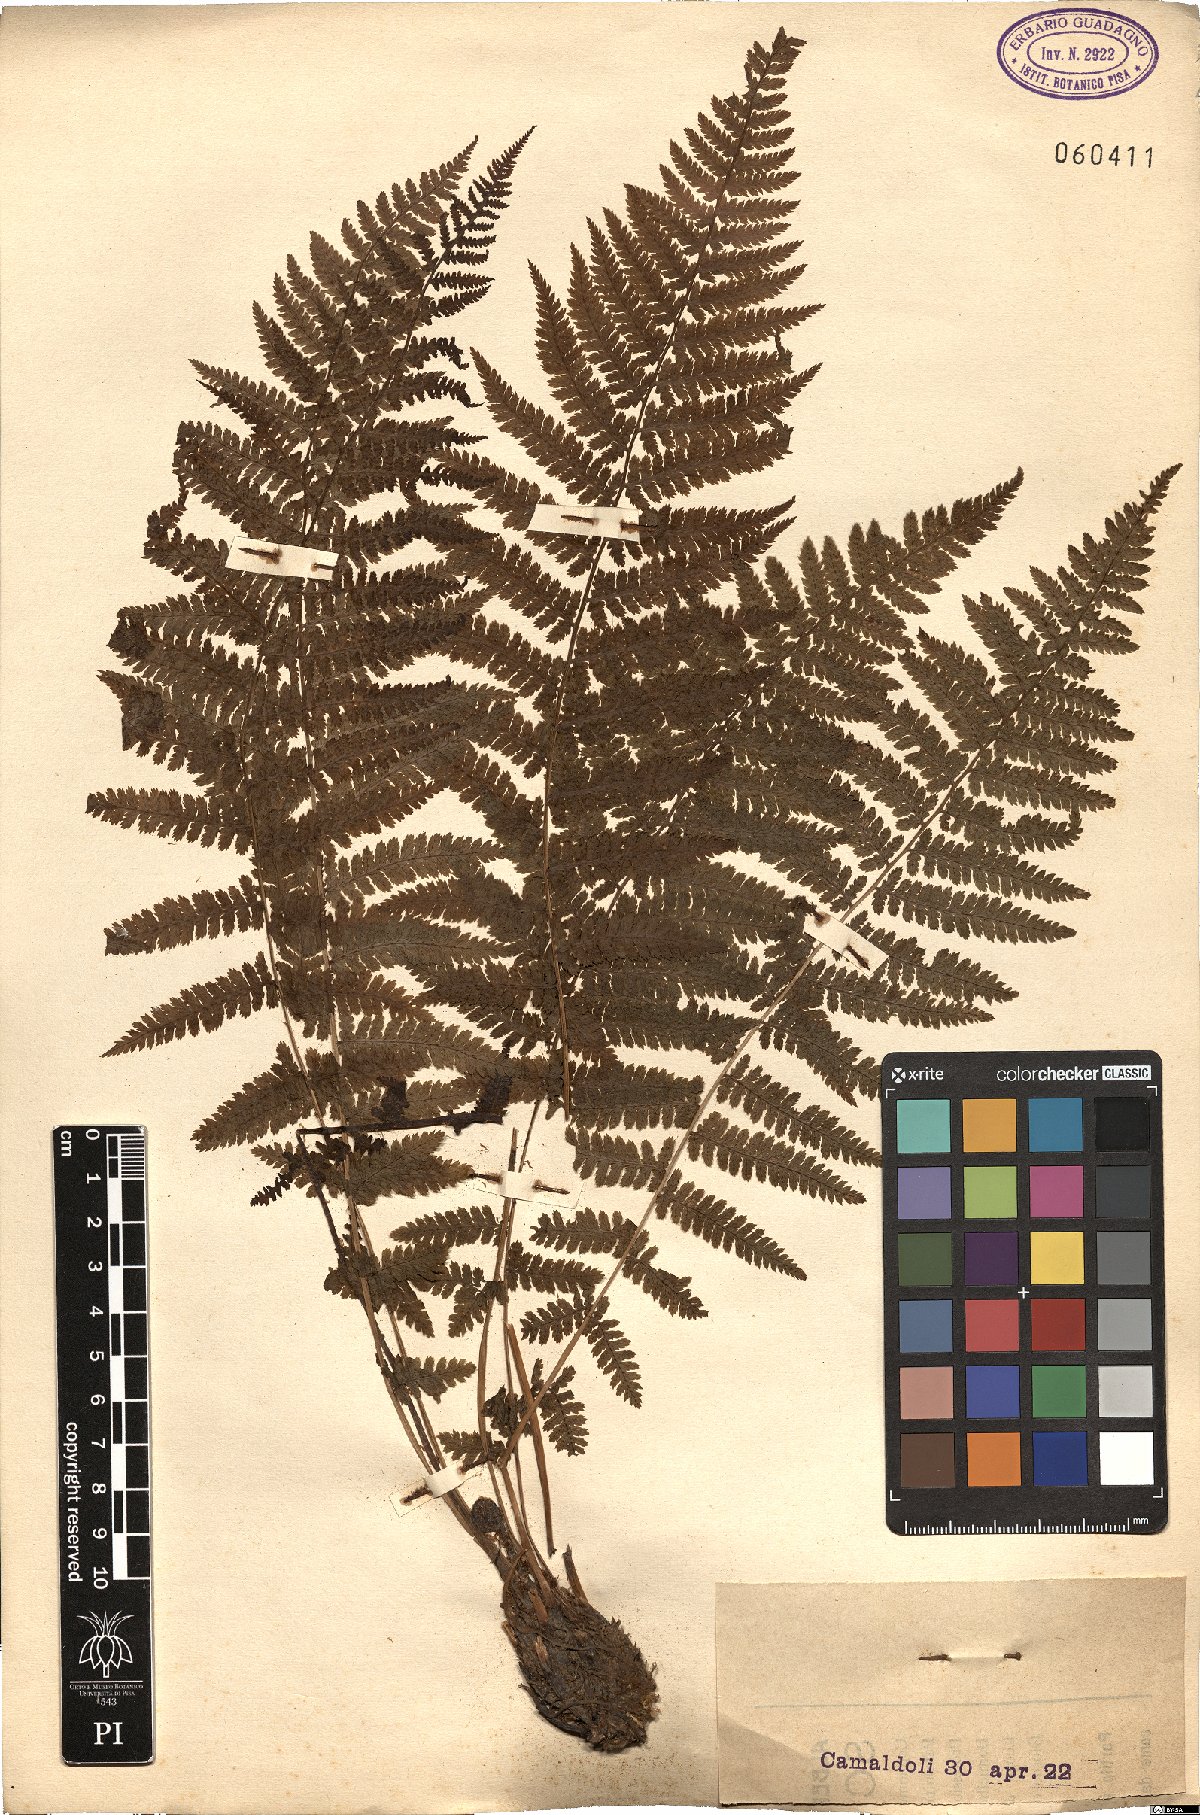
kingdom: Plantae
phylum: Tracheophyta
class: Polypodiopsida
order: Polypodiales
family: Dryopteridaceae
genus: Dryopteris
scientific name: Dryopteris
